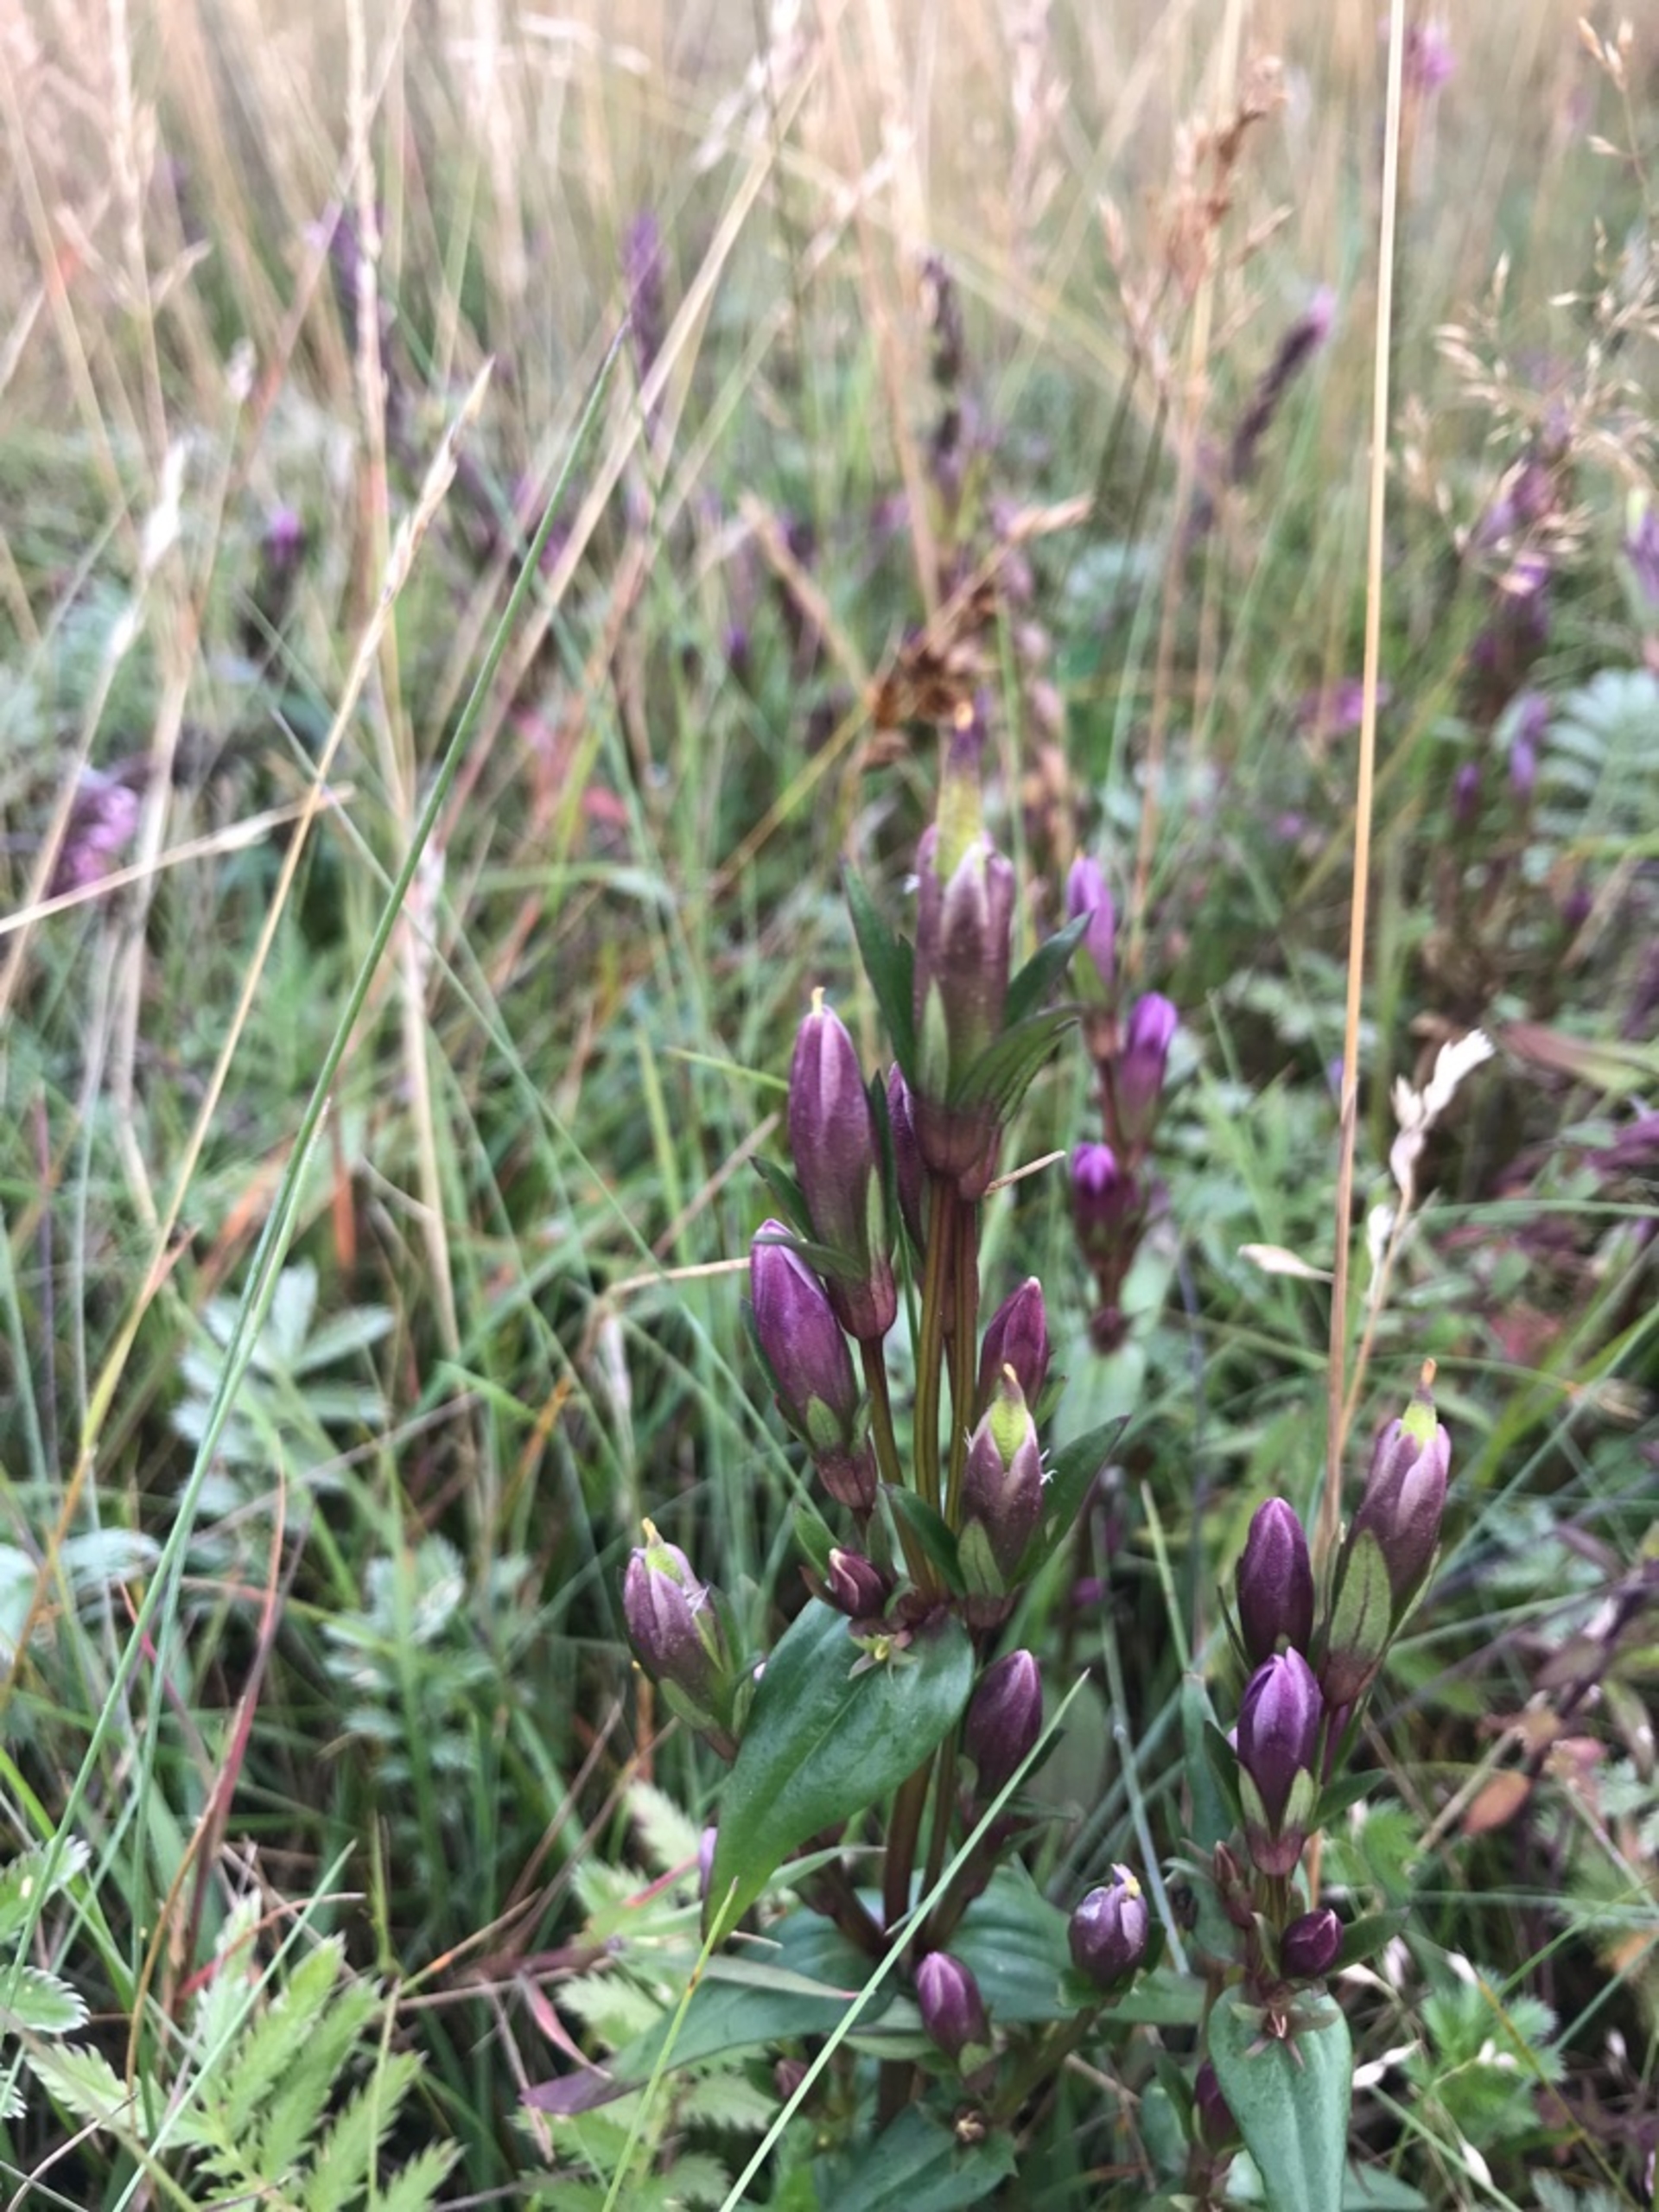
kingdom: Plantae
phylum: Tracheophyta
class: Magnoliopsida
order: Gentianales
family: Gentianaceae
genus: Gentianella
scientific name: Gentianella uliginosa
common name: Eng-ensian
